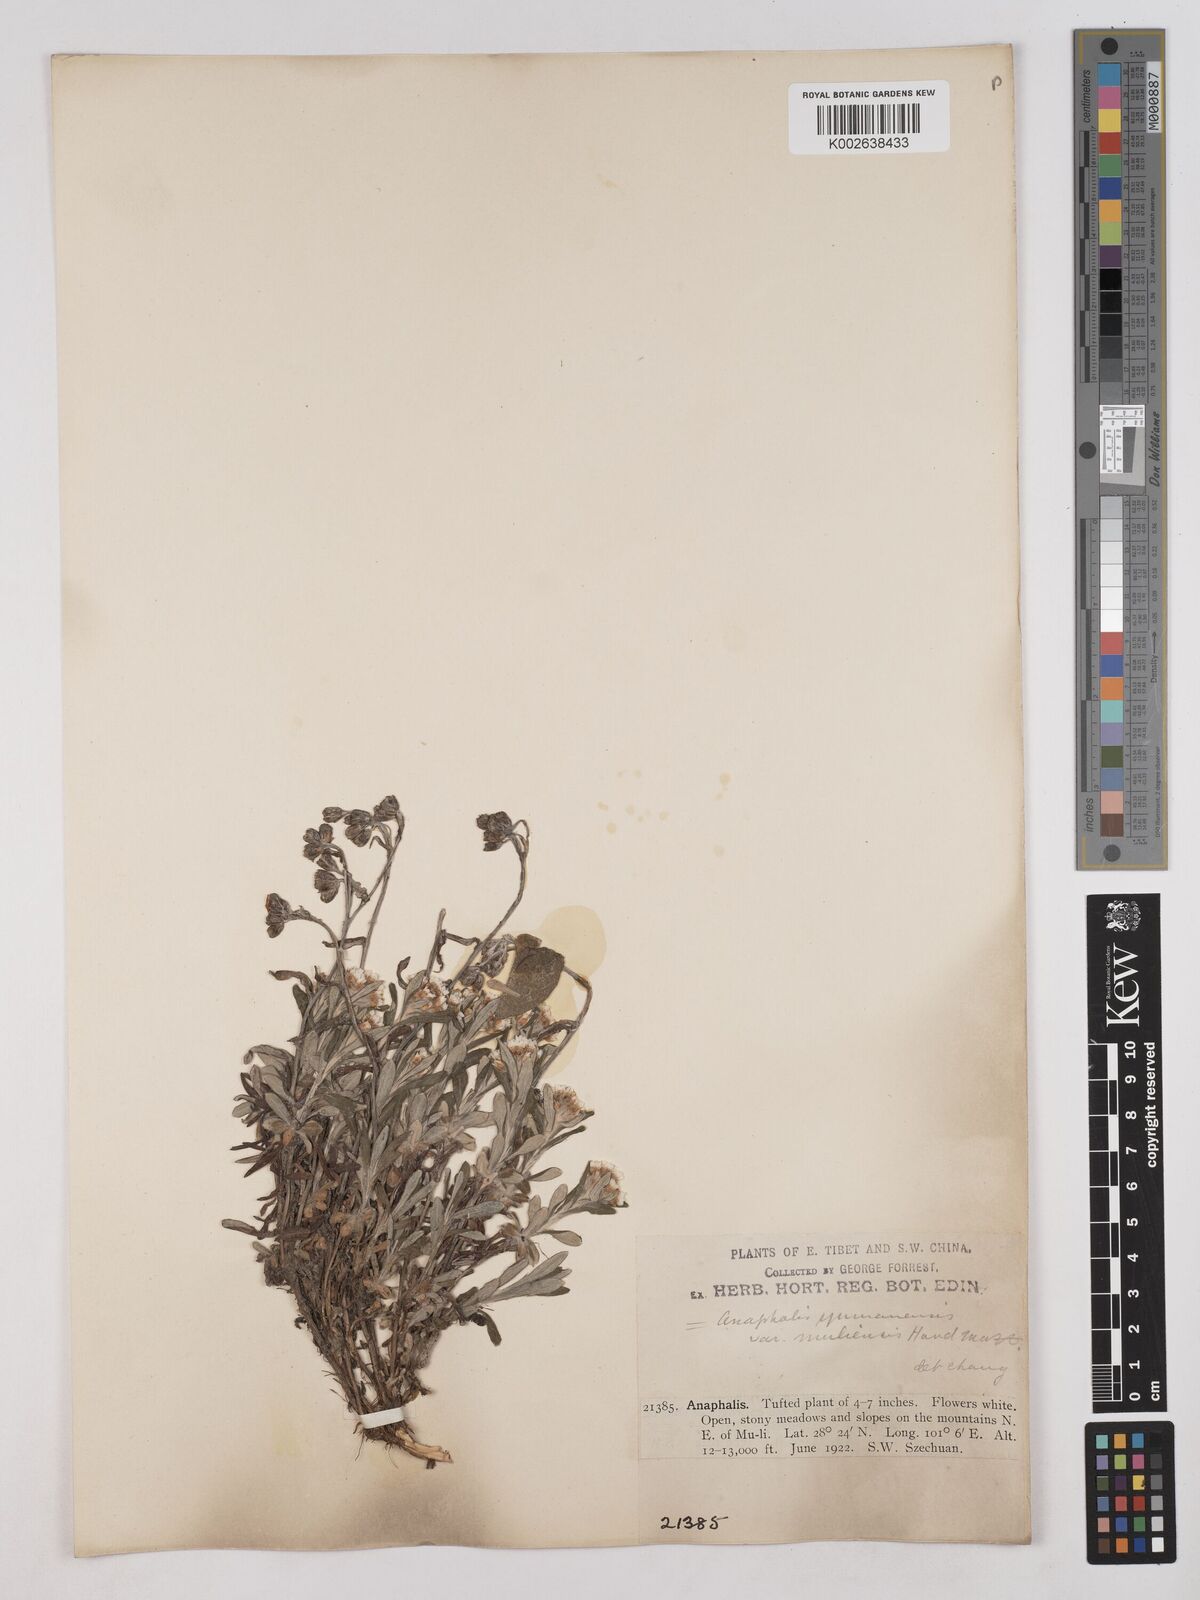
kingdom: Plantae
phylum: Tracheophyta
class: Magnoliopsida
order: Asterales
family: Asteraceae
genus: Anaphalis
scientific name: Anaphalis yunnanensis
